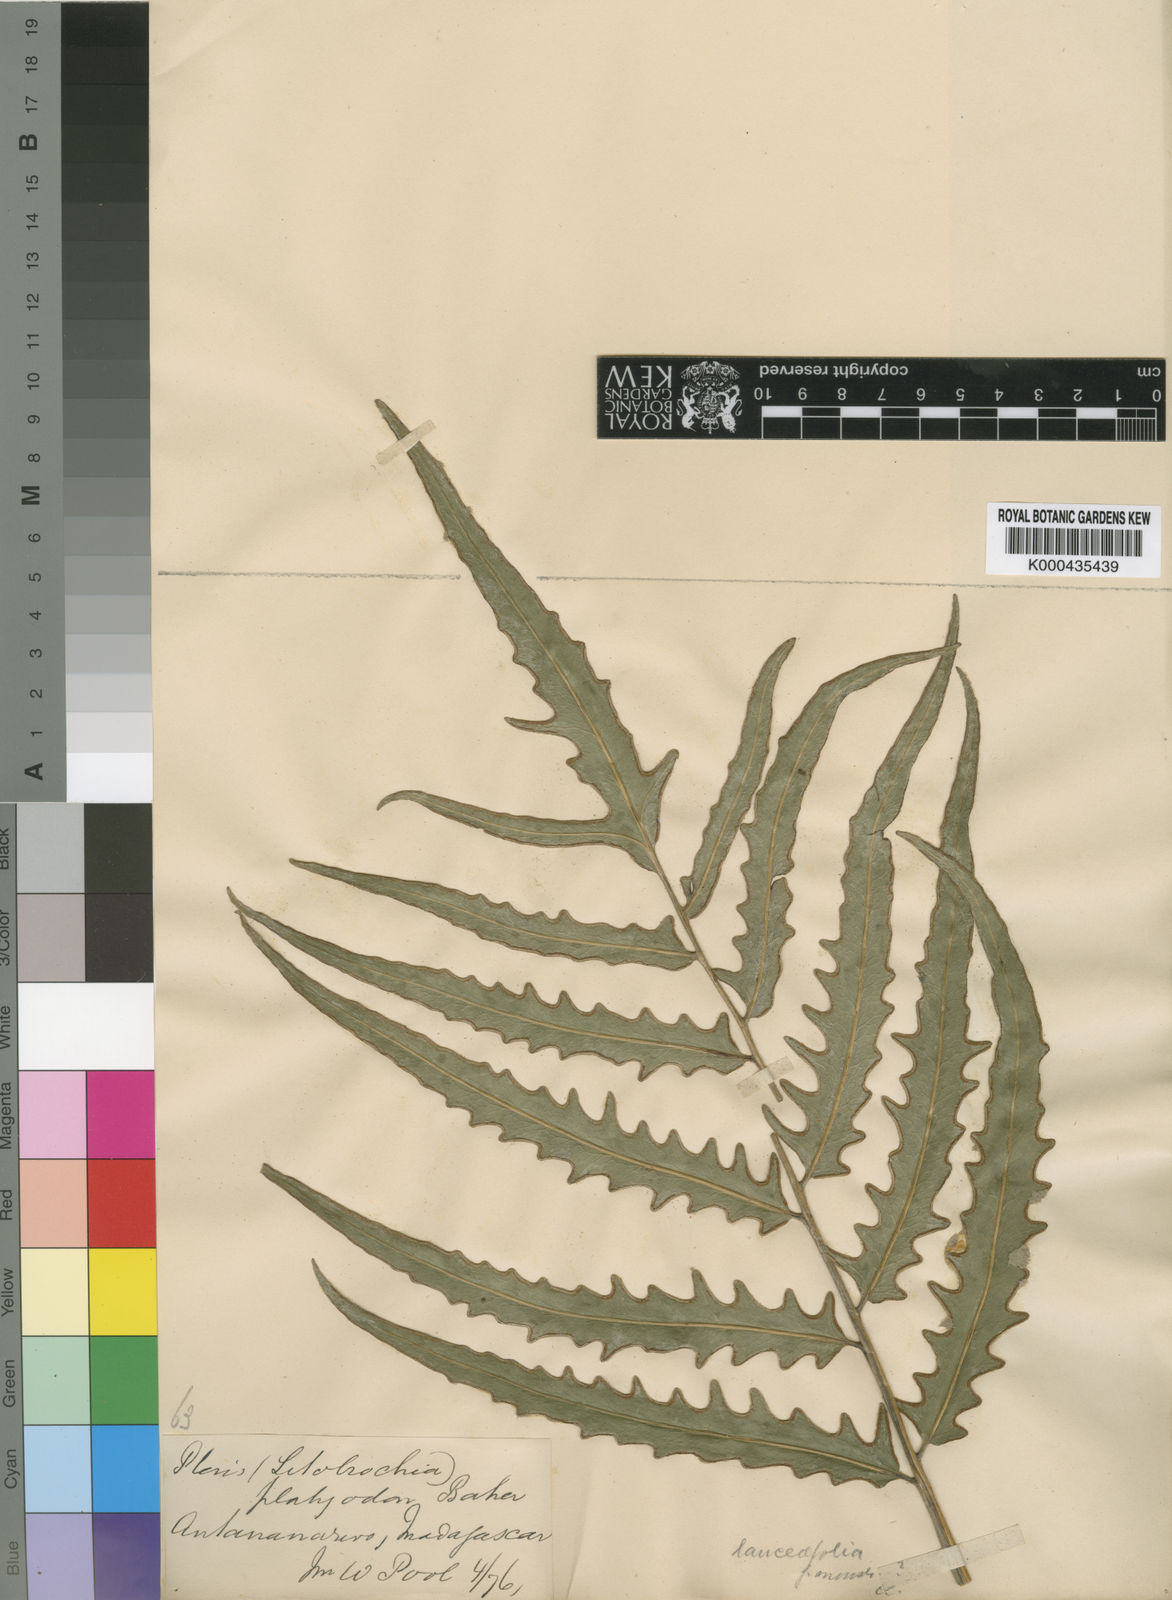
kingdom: Plantae
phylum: Tracheophyta
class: Polypodiopsida
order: Polypodiales
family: Pteridaceae
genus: Pteris
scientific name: Pteris
